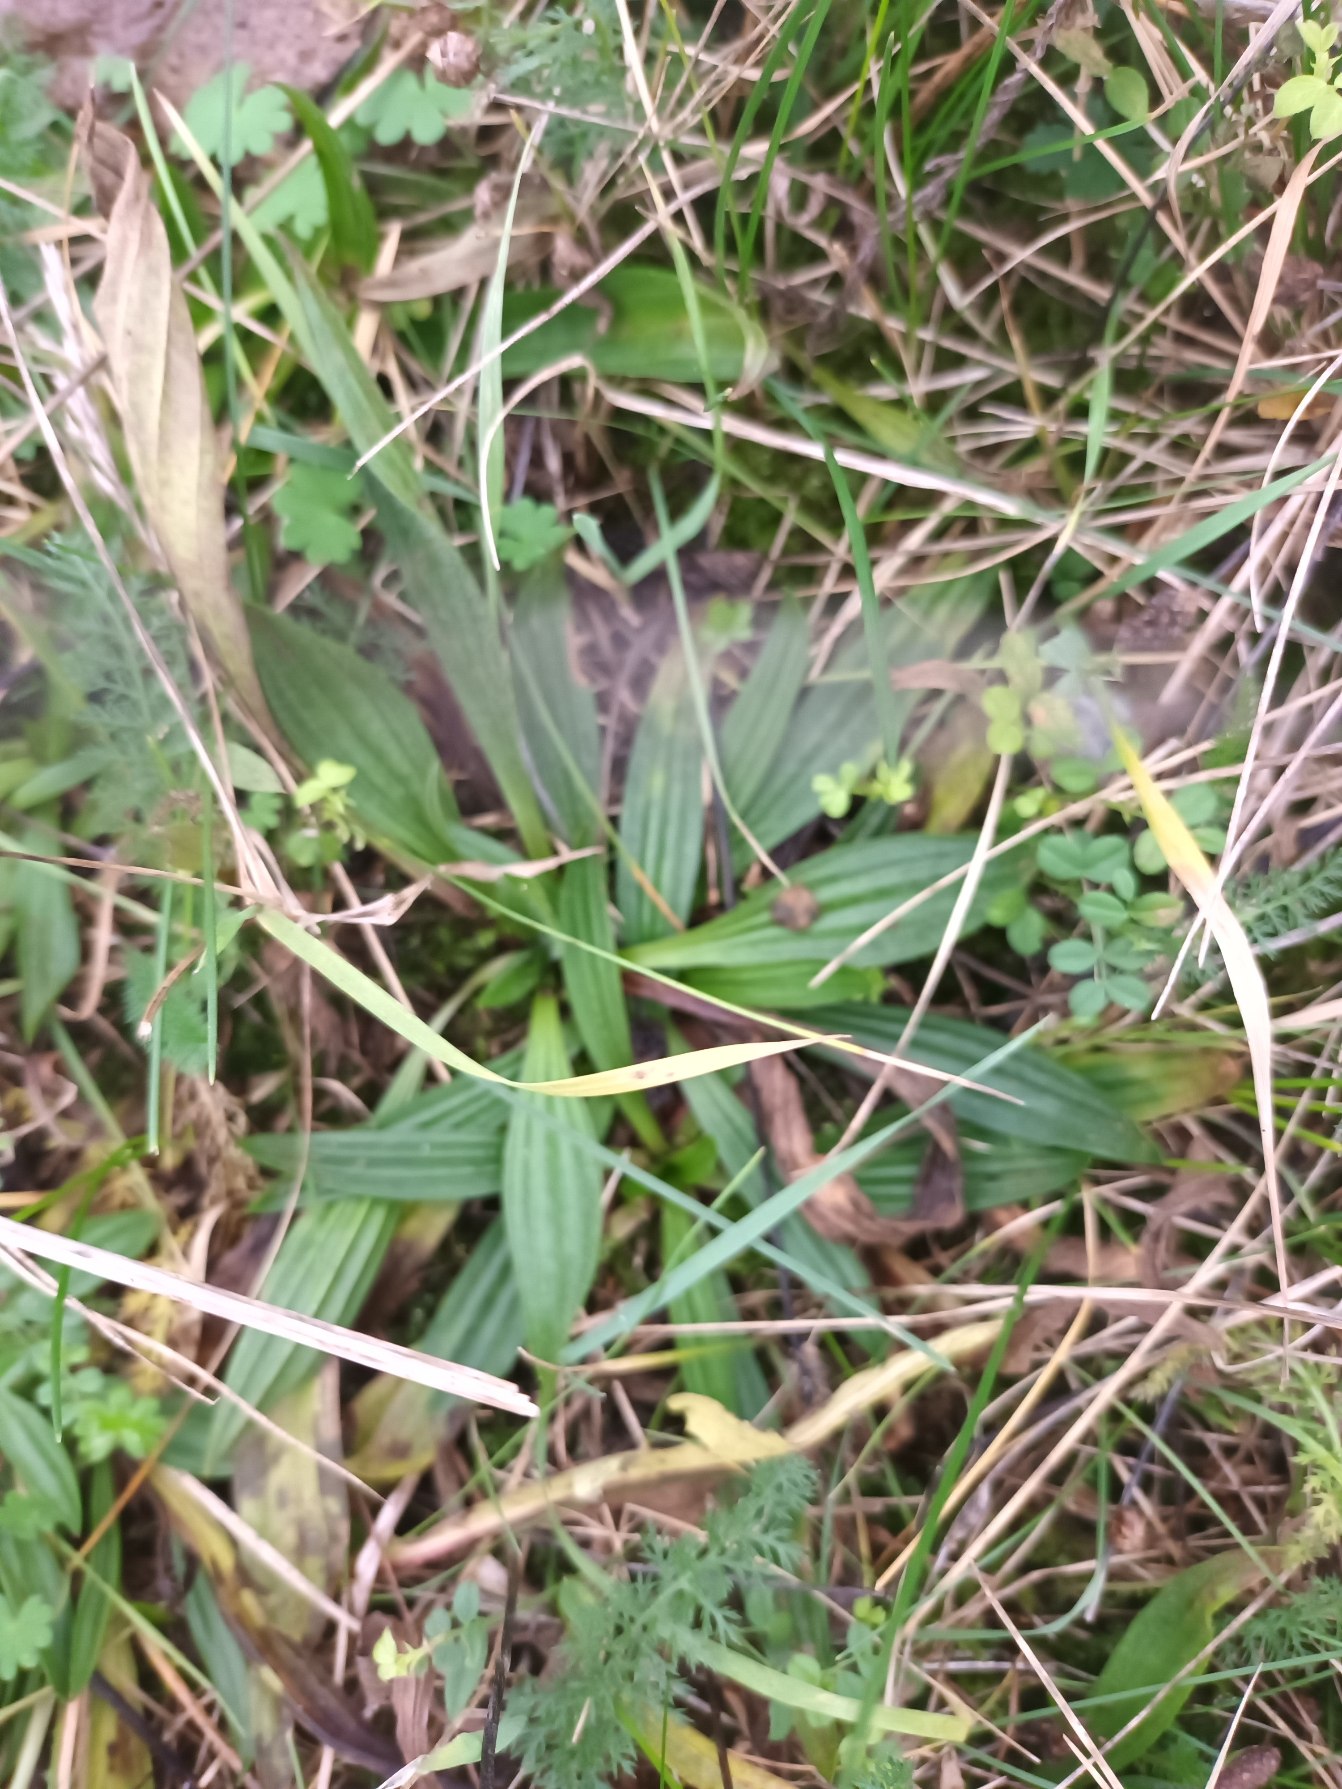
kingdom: Plantae
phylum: Tracheophyta
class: Magnoliopsida
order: Lamiales
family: Plantaginaceae
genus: Plantago
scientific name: Plantago lanceolata
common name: Lancet-vejbred
